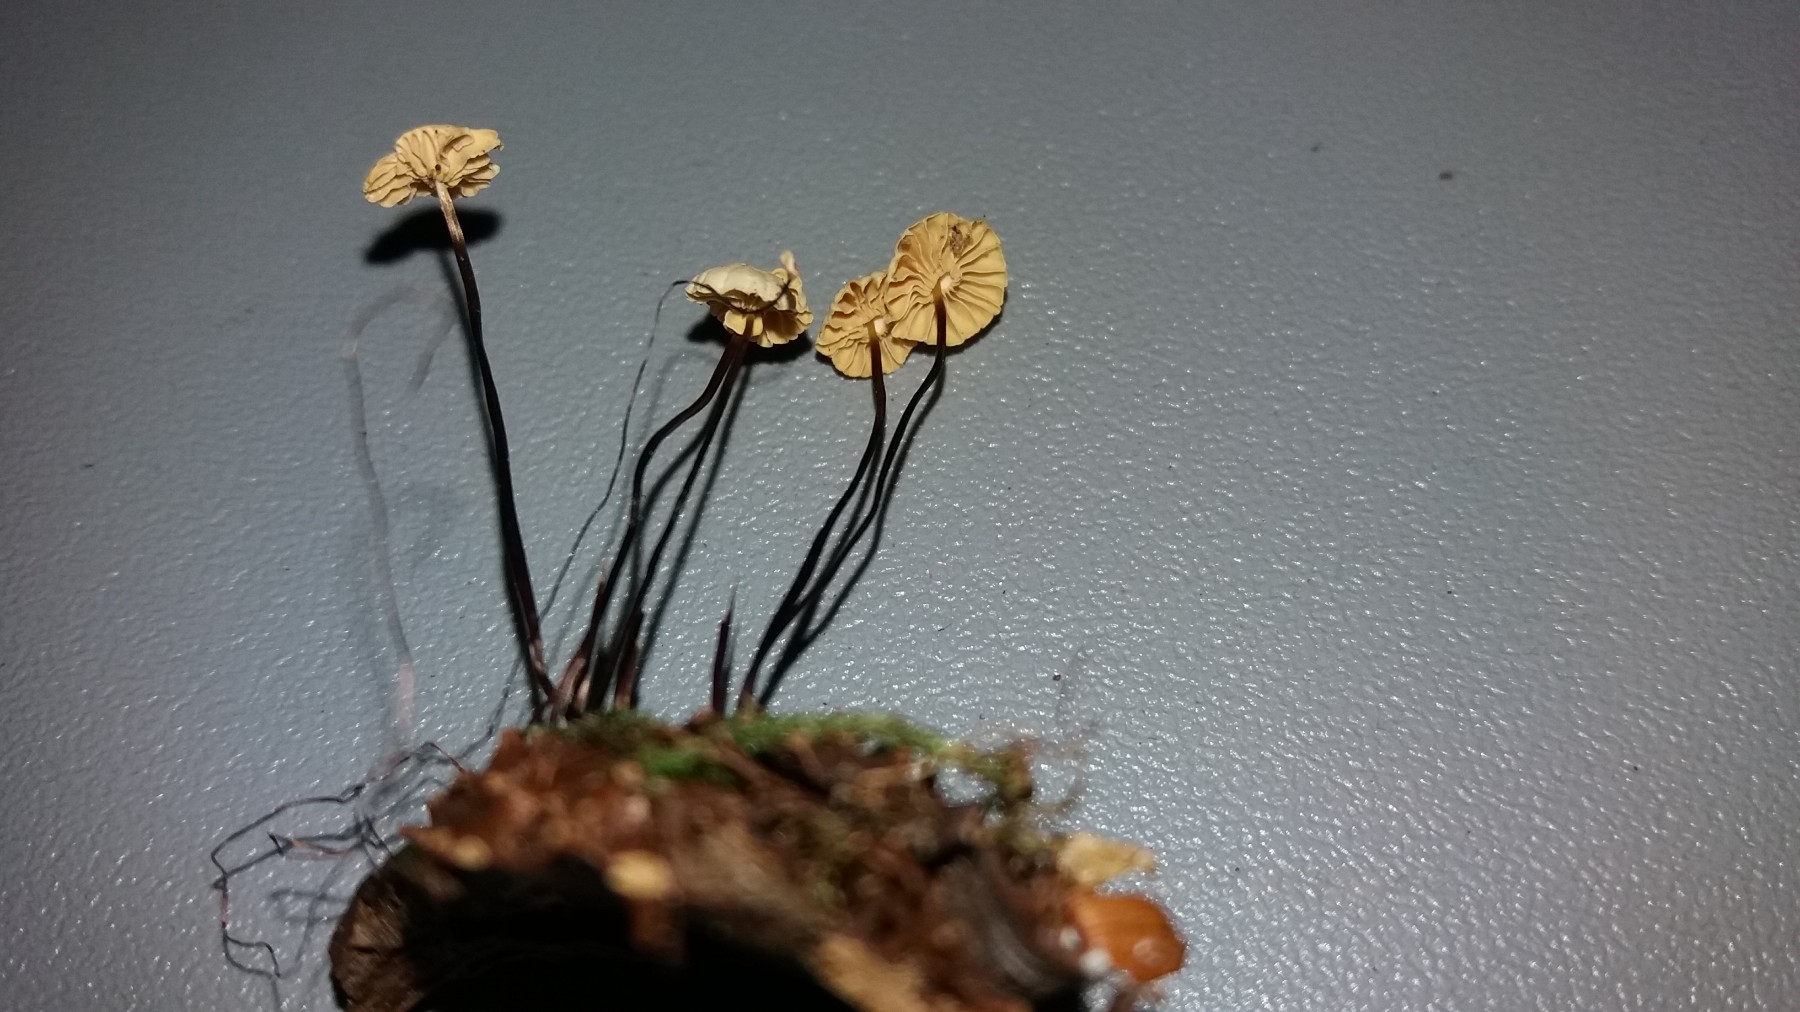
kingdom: Fungi
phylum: Basidiomycota
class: Agaricomycetes
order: Agaricales
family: Marasmiaceae
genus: Marasmius
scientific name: Marasmius rotula
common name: hjul-bruskhat
